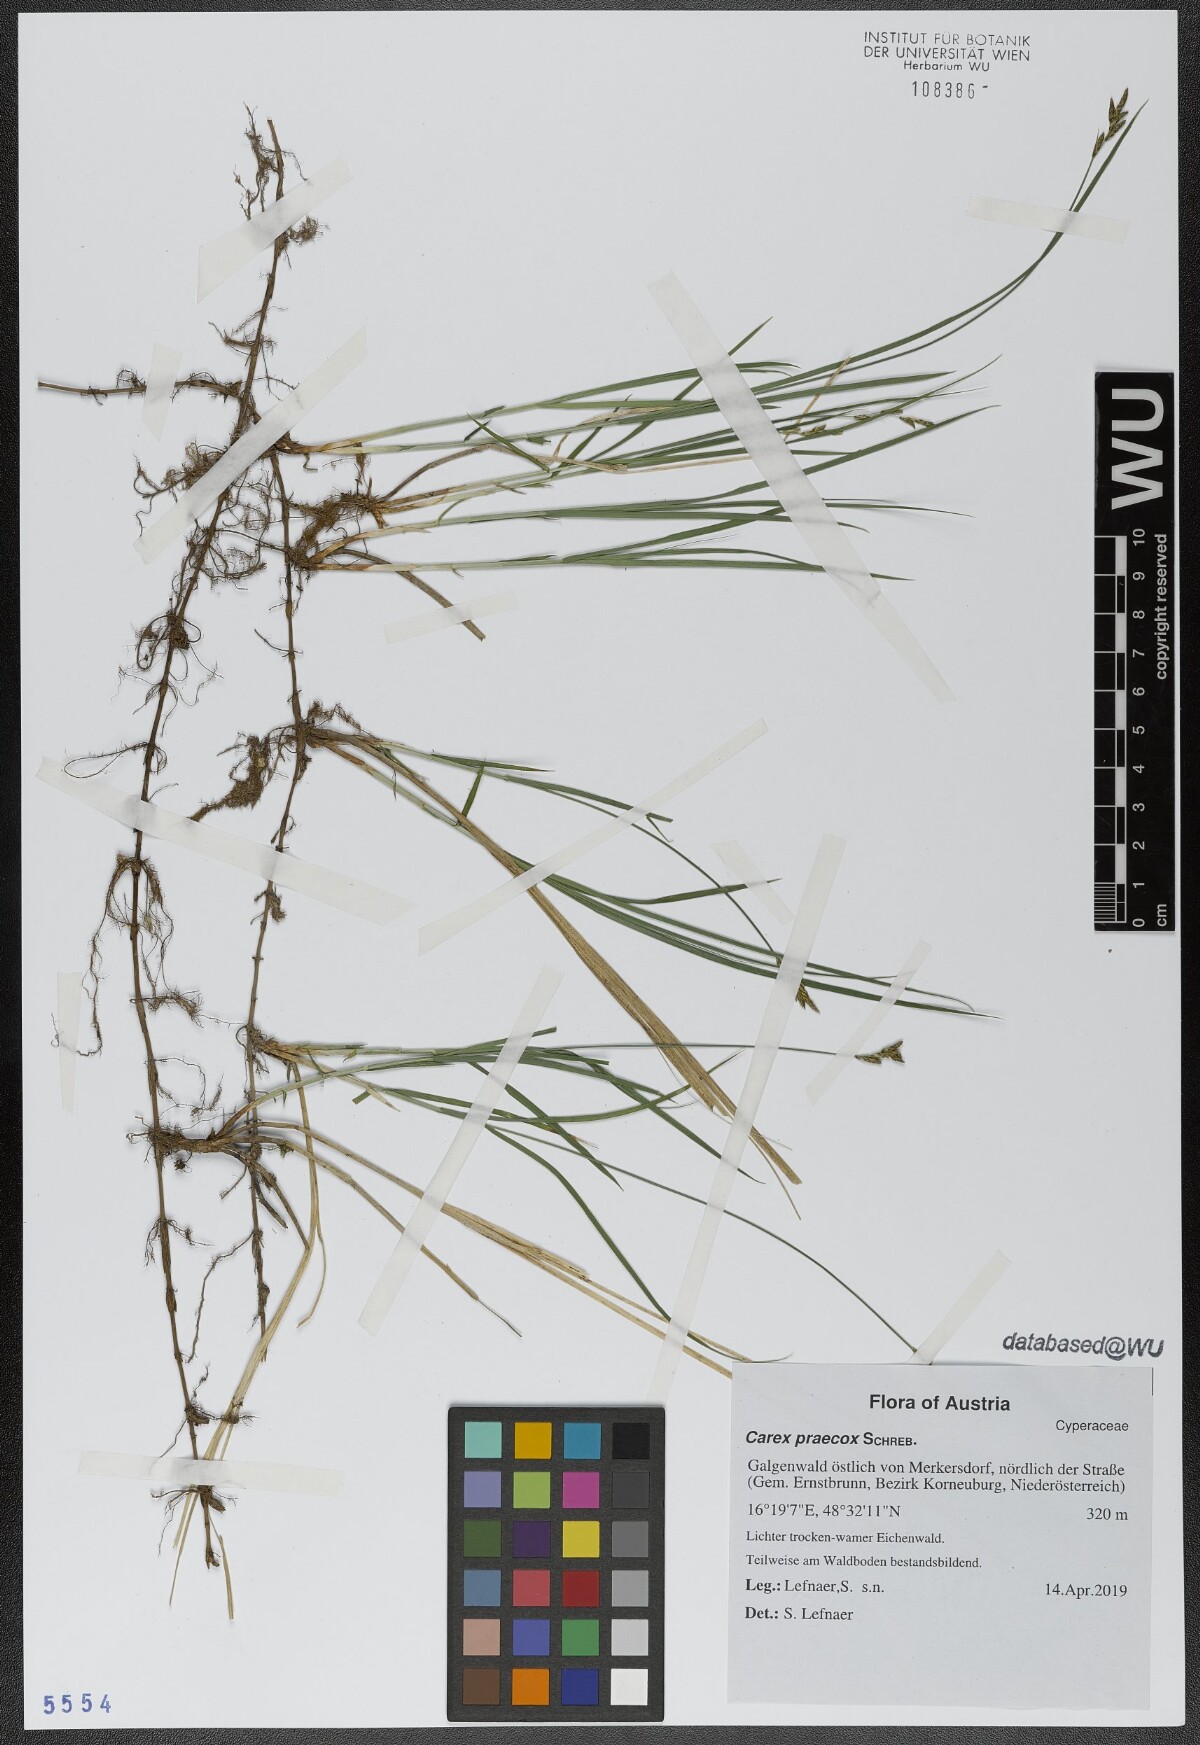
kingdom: Plantae
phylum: Tracheophyta
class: Liliopsida
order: Poales
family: Cyperaceae
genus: Carex
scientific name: Carex praecox
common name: Early sedge
